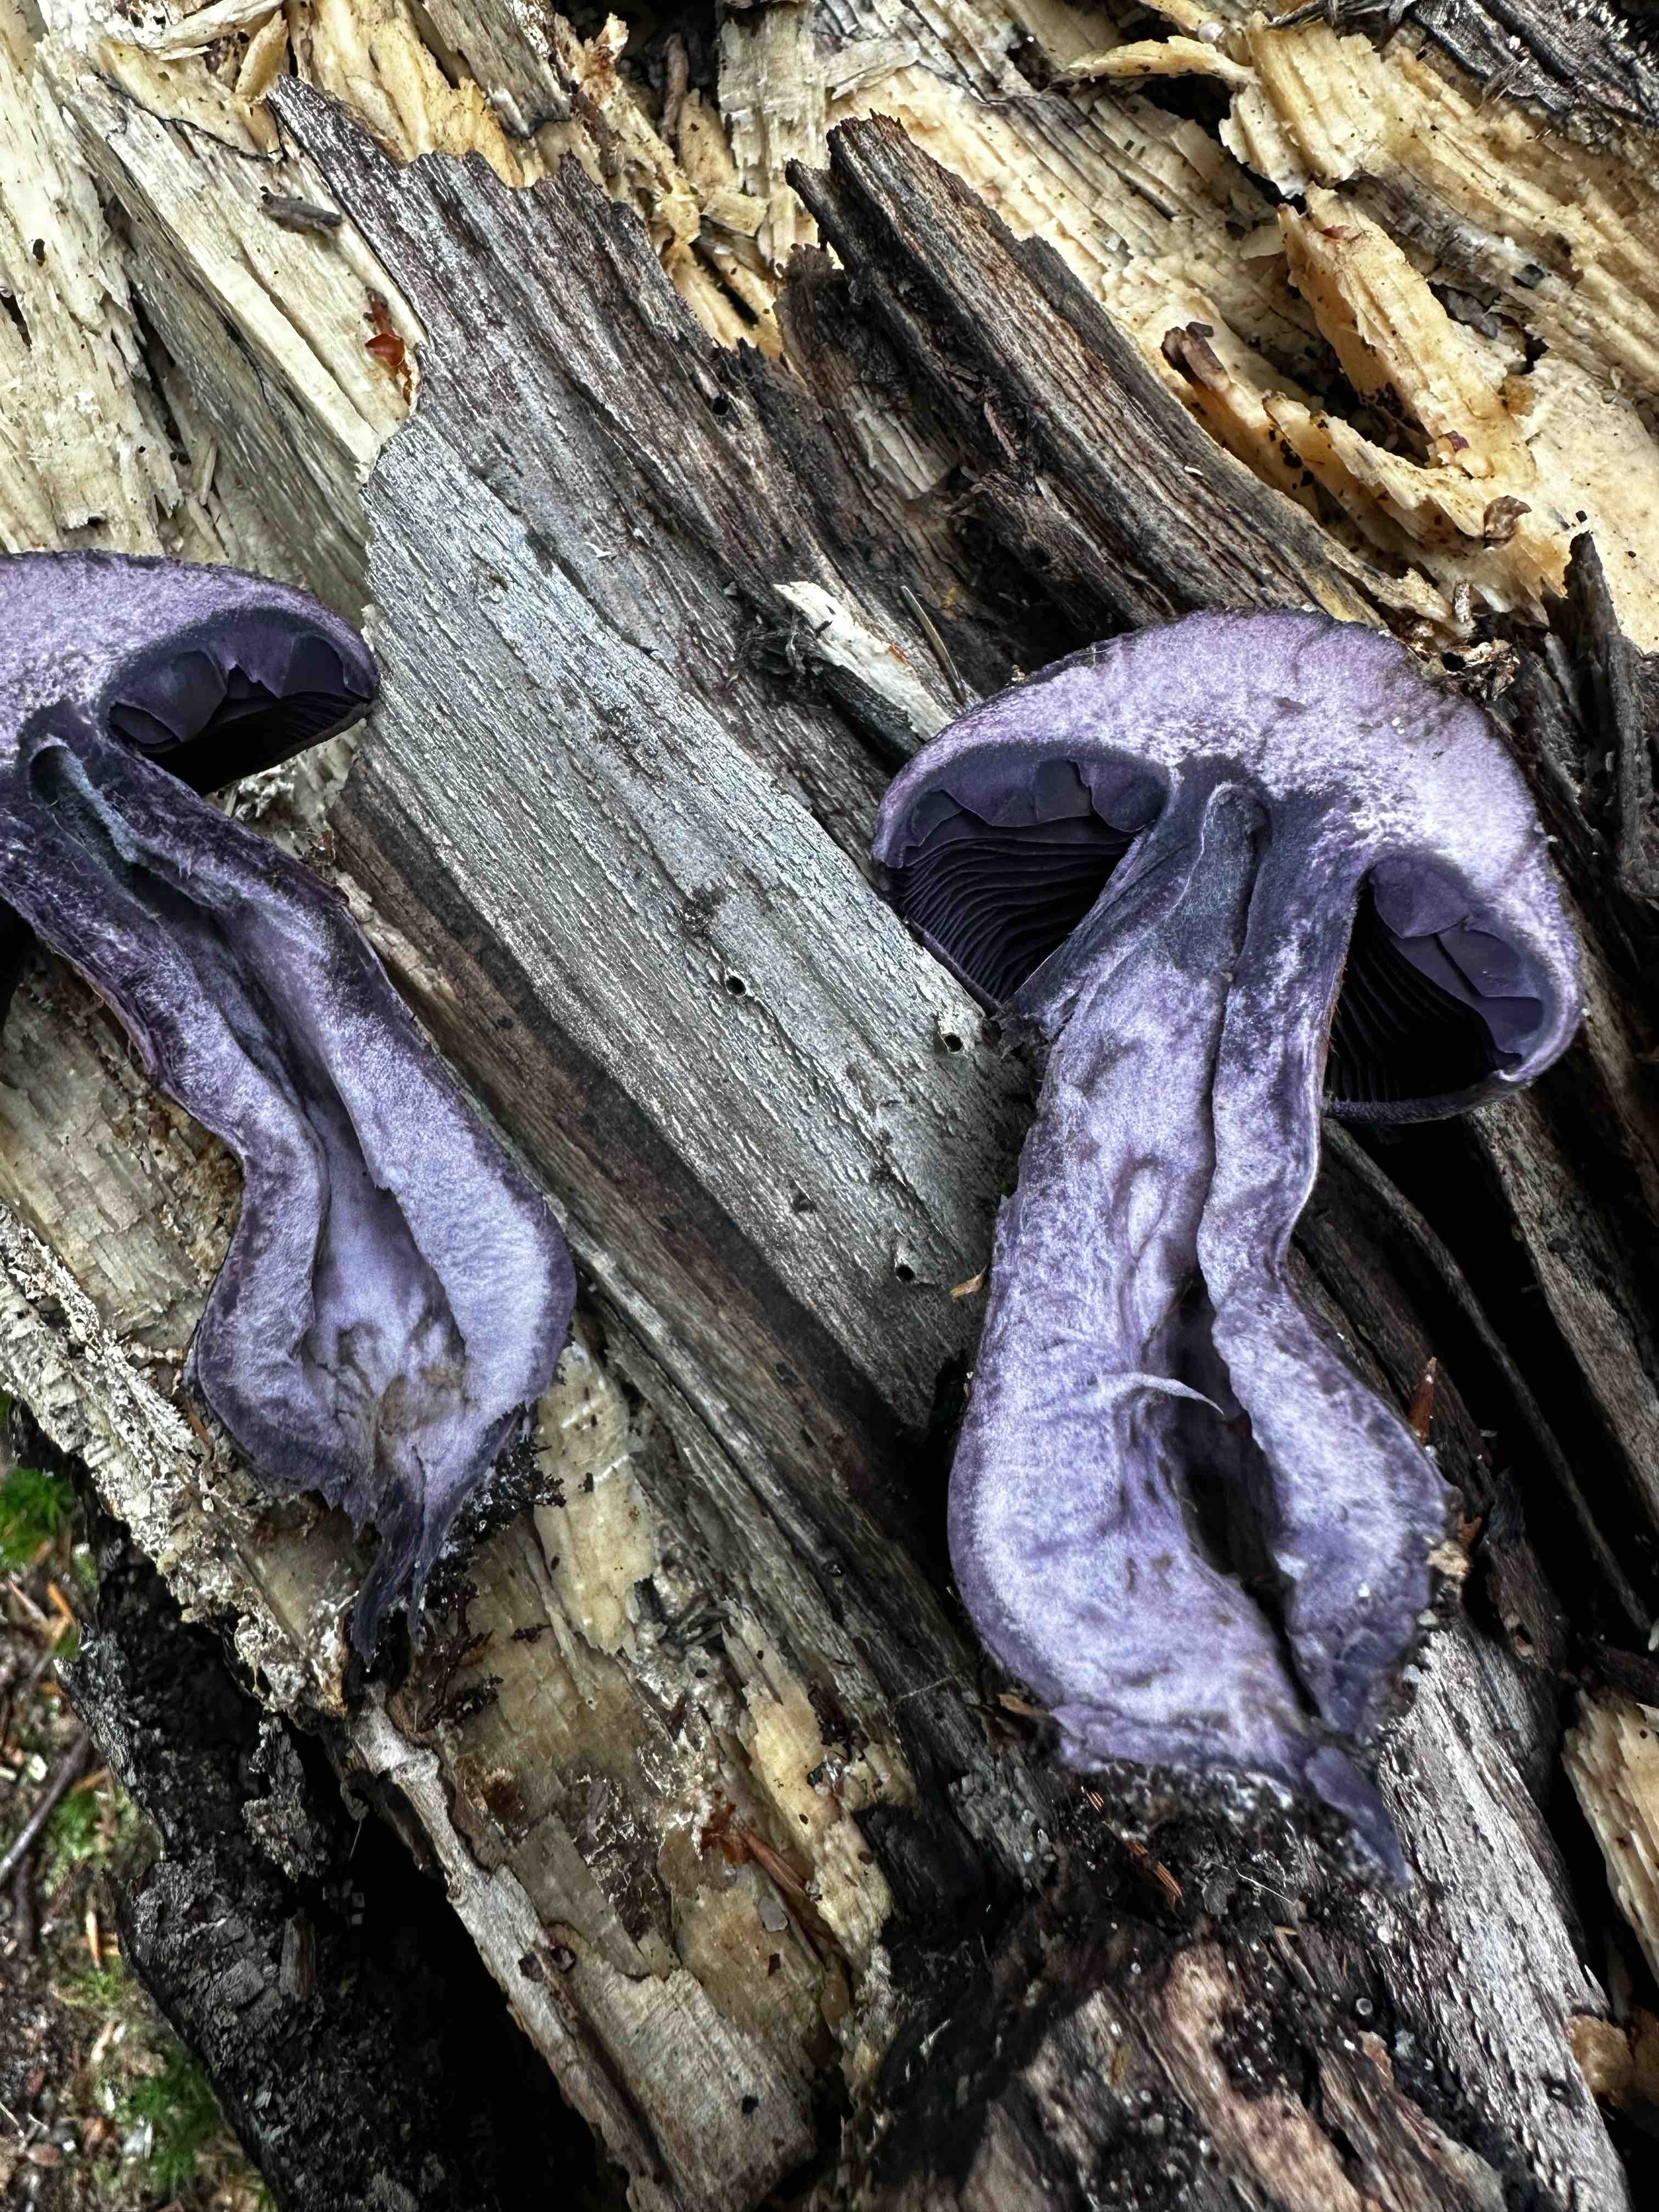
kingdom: Fungi
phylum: Basidiomycota
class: Agaricomycetes
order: Agaricales
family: Cortinariaceae
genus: Cortinarius
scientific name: Cortinarius violaceus
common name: mørkviolet slørhat
